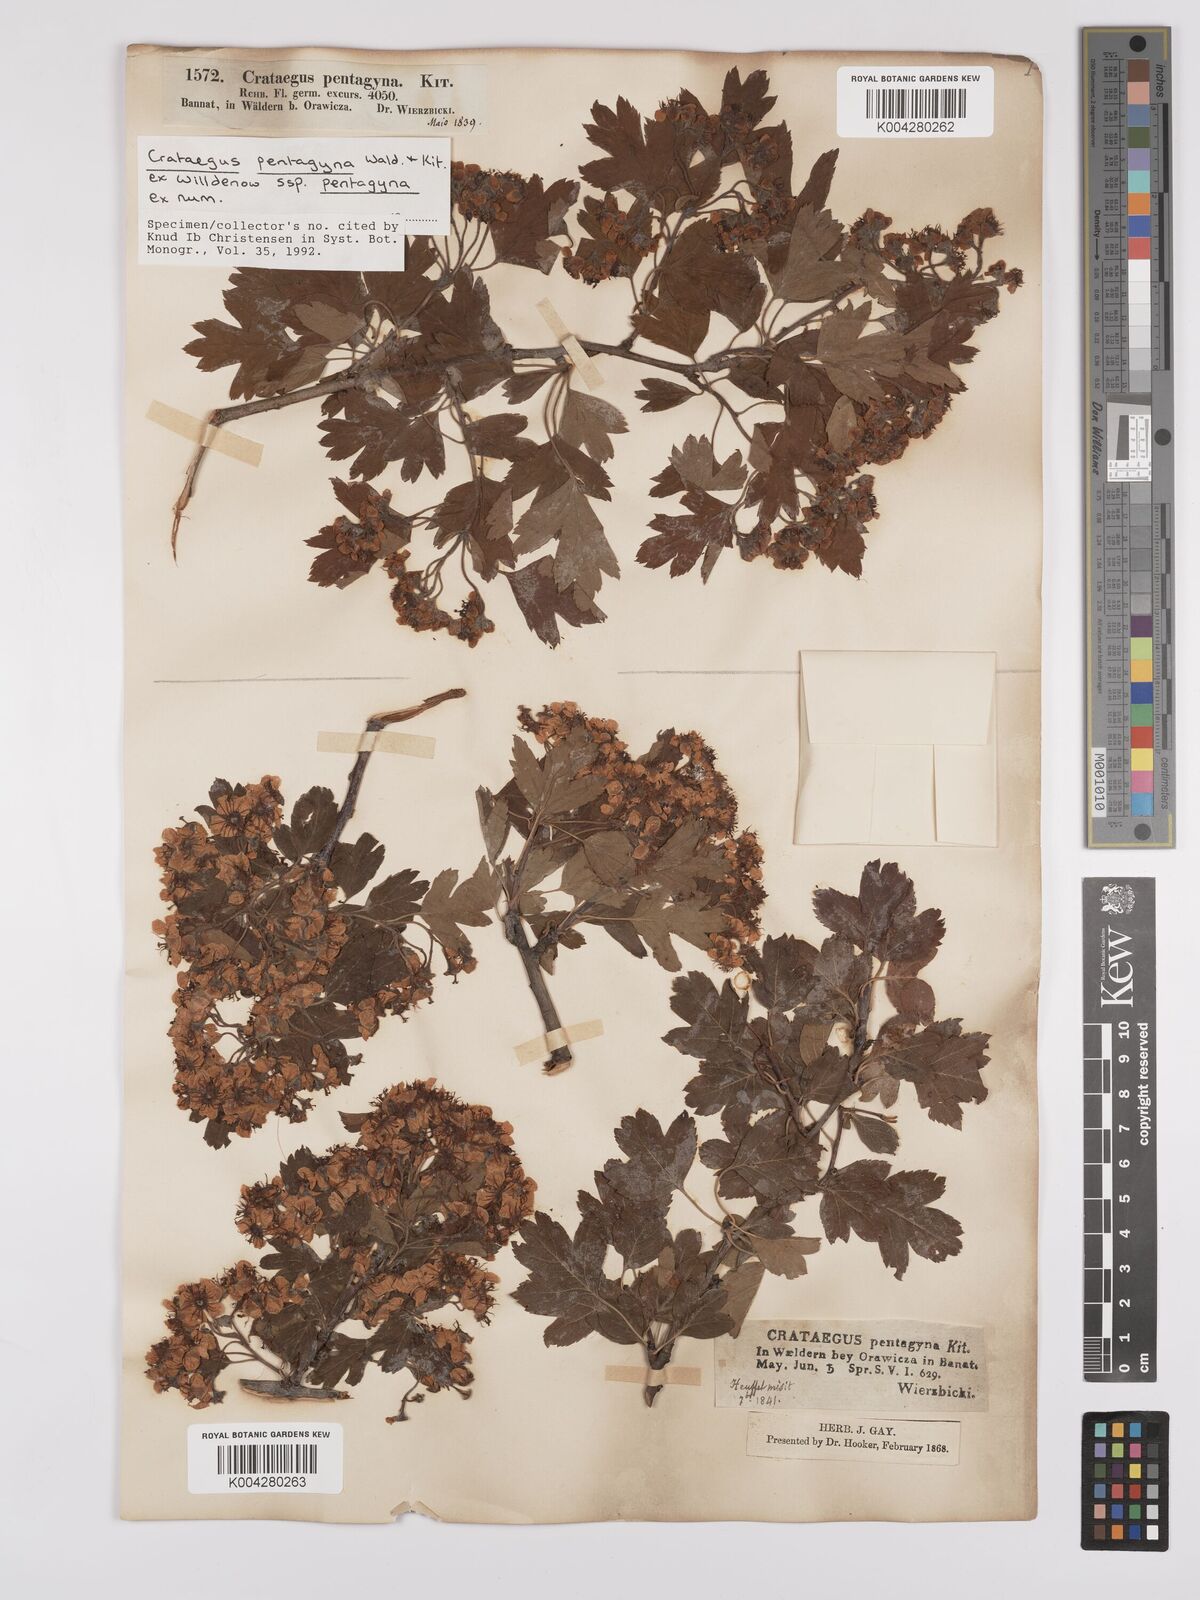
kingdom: Plantae
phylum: Tracheophyta
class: Magnoliopsida
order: Rosales
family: Rosaceae
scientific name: Rosaceae
